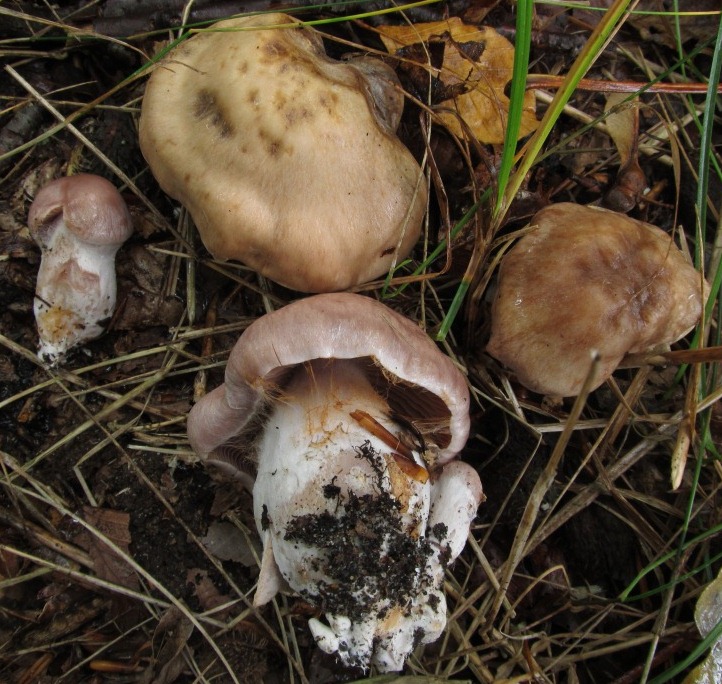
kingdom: Fungi
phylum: Basidiomycota
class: Agaricomycetes
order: Agaricales
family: Cortinariaceae
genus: Cortinarius
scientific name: Cortinarius
